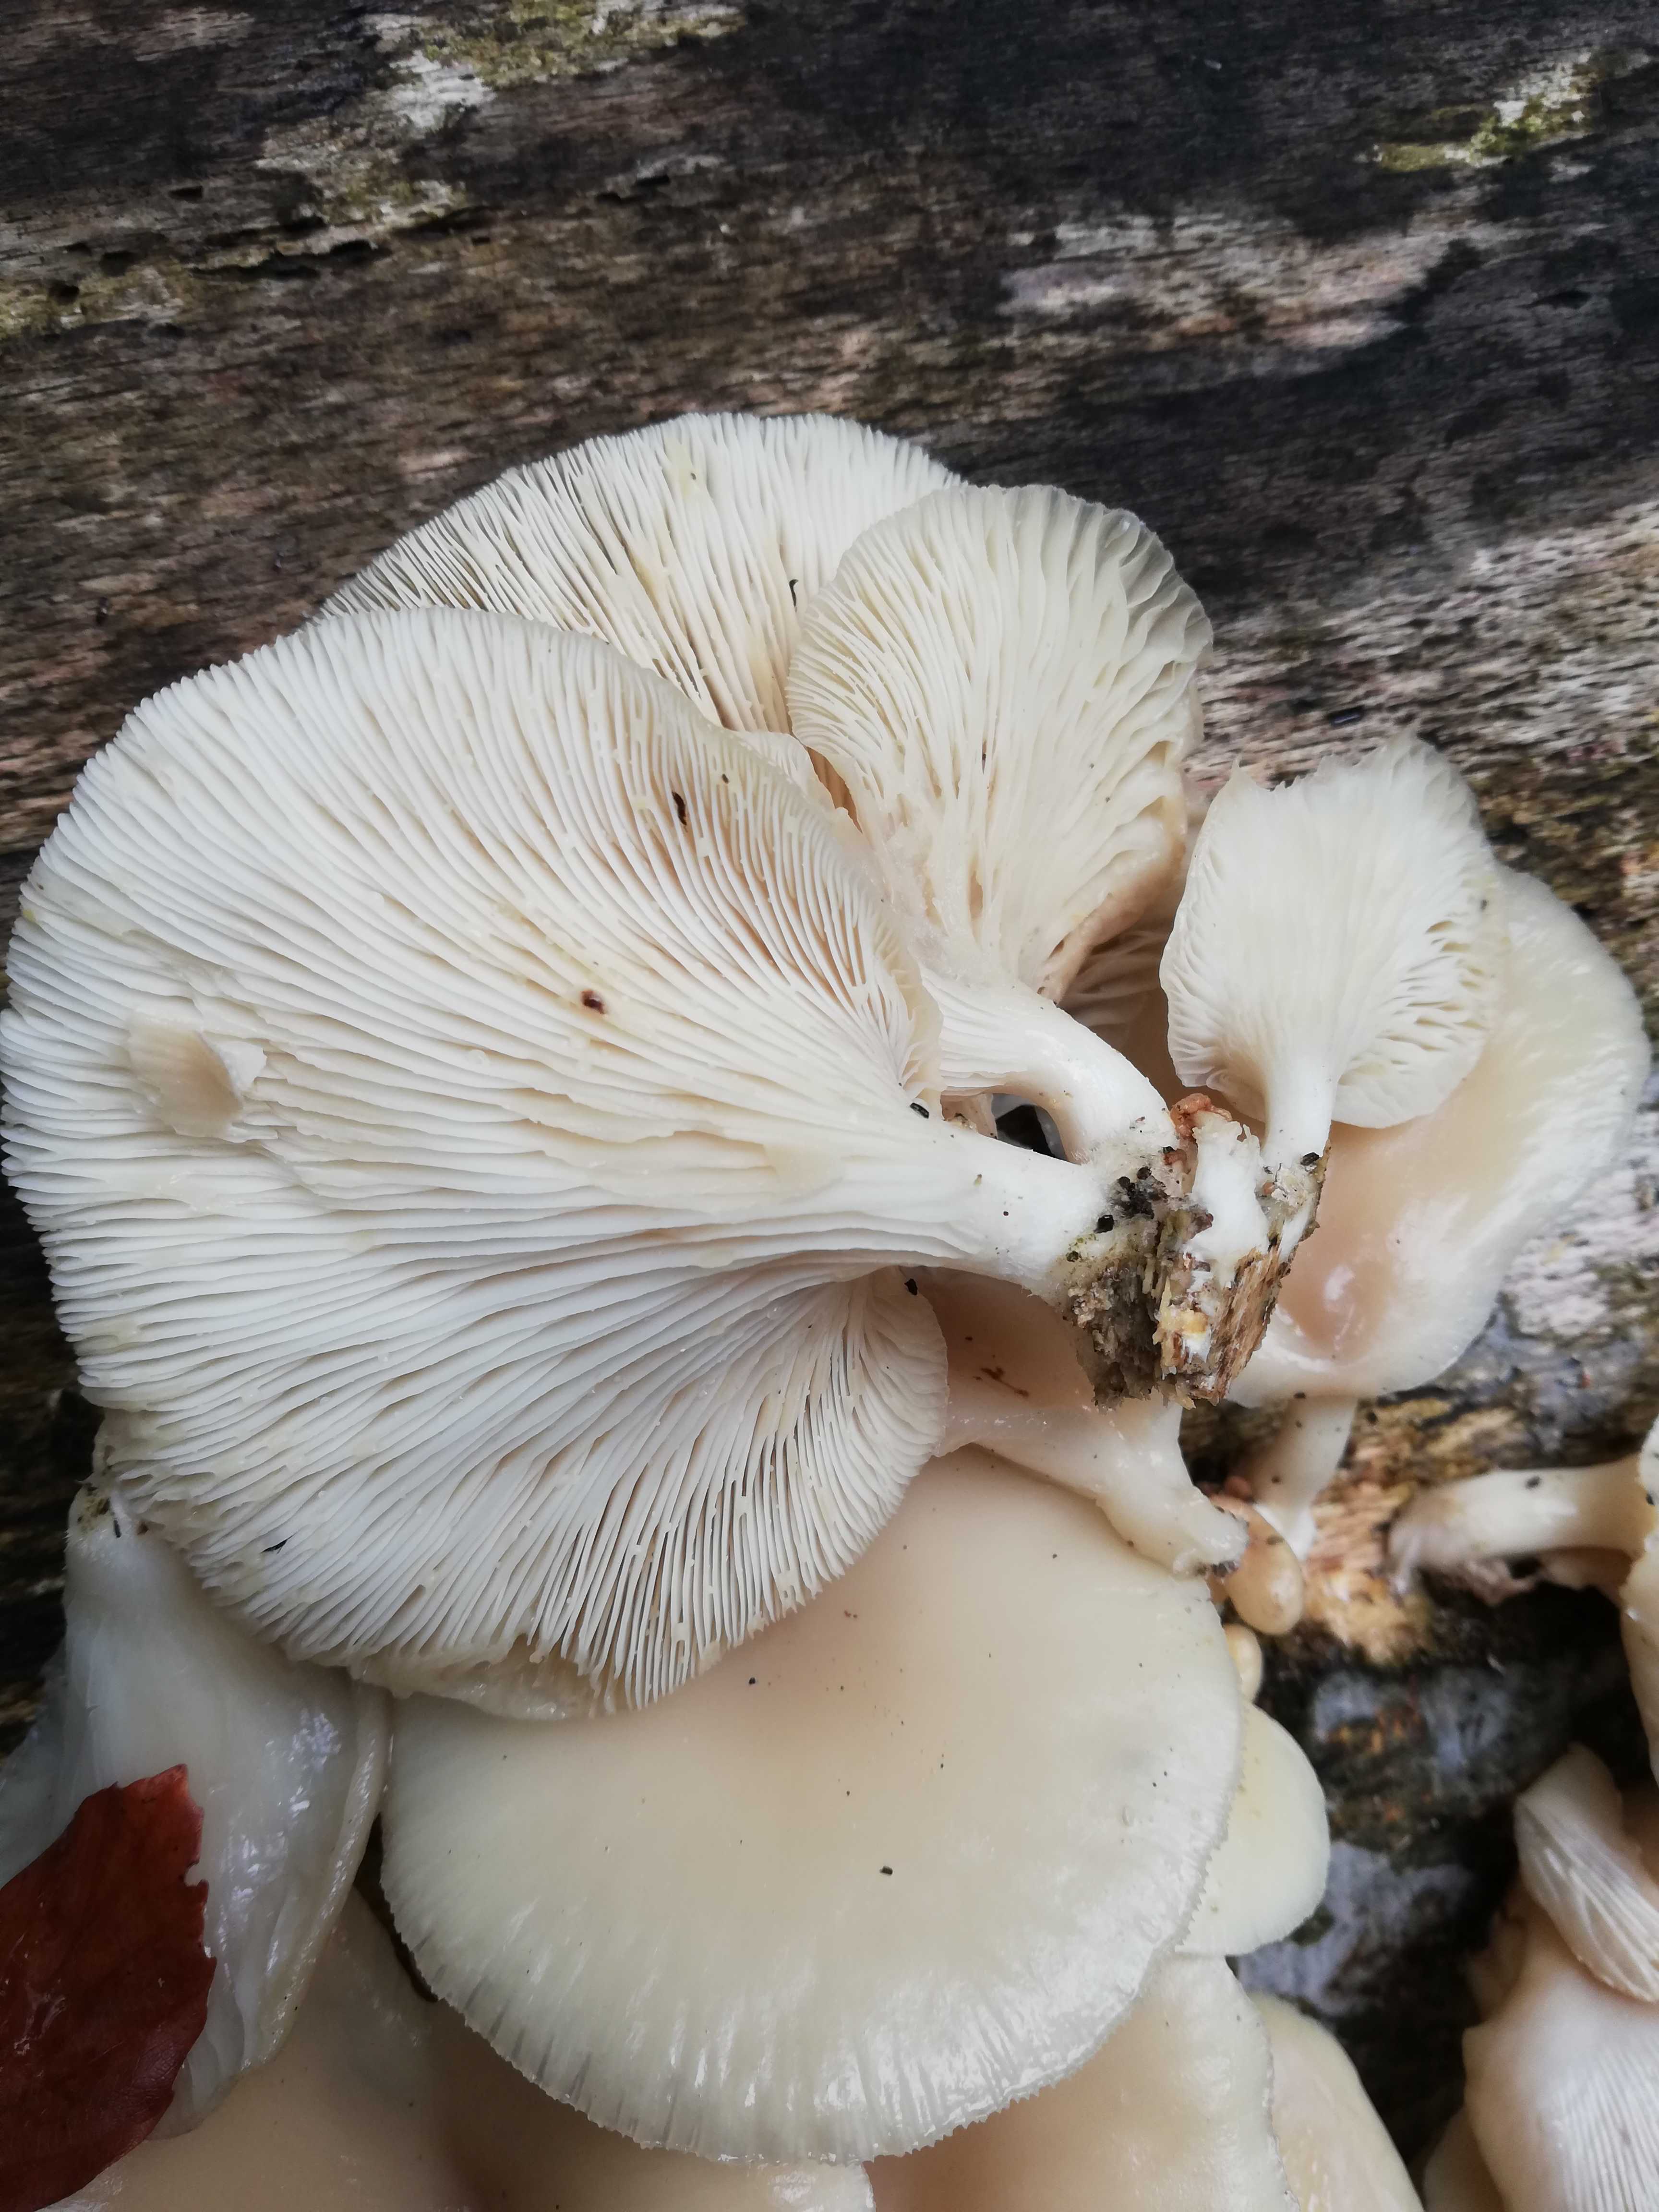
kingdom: Fungi
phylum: Basidiomycota
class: Agaricomycetes
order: Agaricales
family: Pleurotaceae
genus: Pleurotus
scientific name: Pleurotus pulmonarius
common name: sommer-østershat
